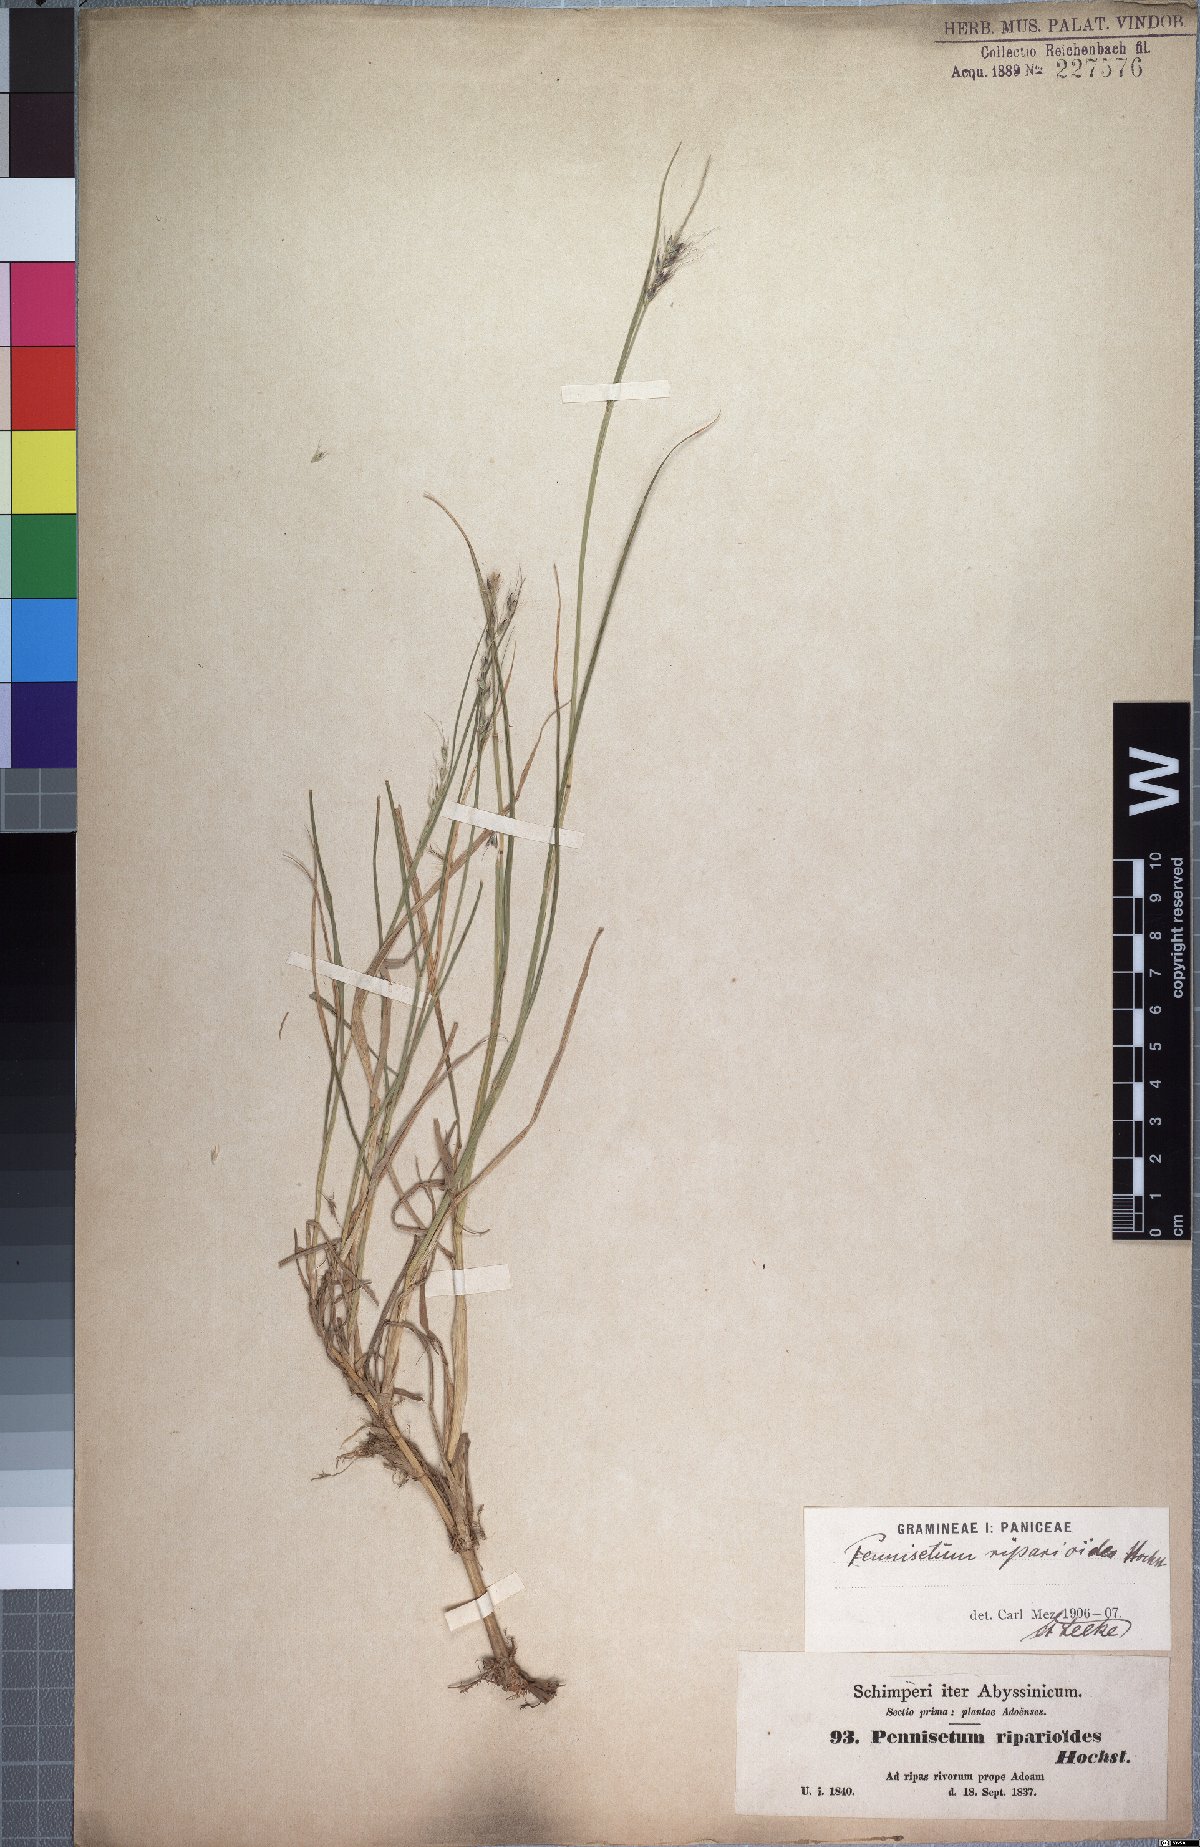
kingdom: Plantae
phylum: Tracheophyta
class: Liliopsida
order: Poales
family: Poaceae
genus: Cenchrus
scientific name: Cenchrus caudatus
